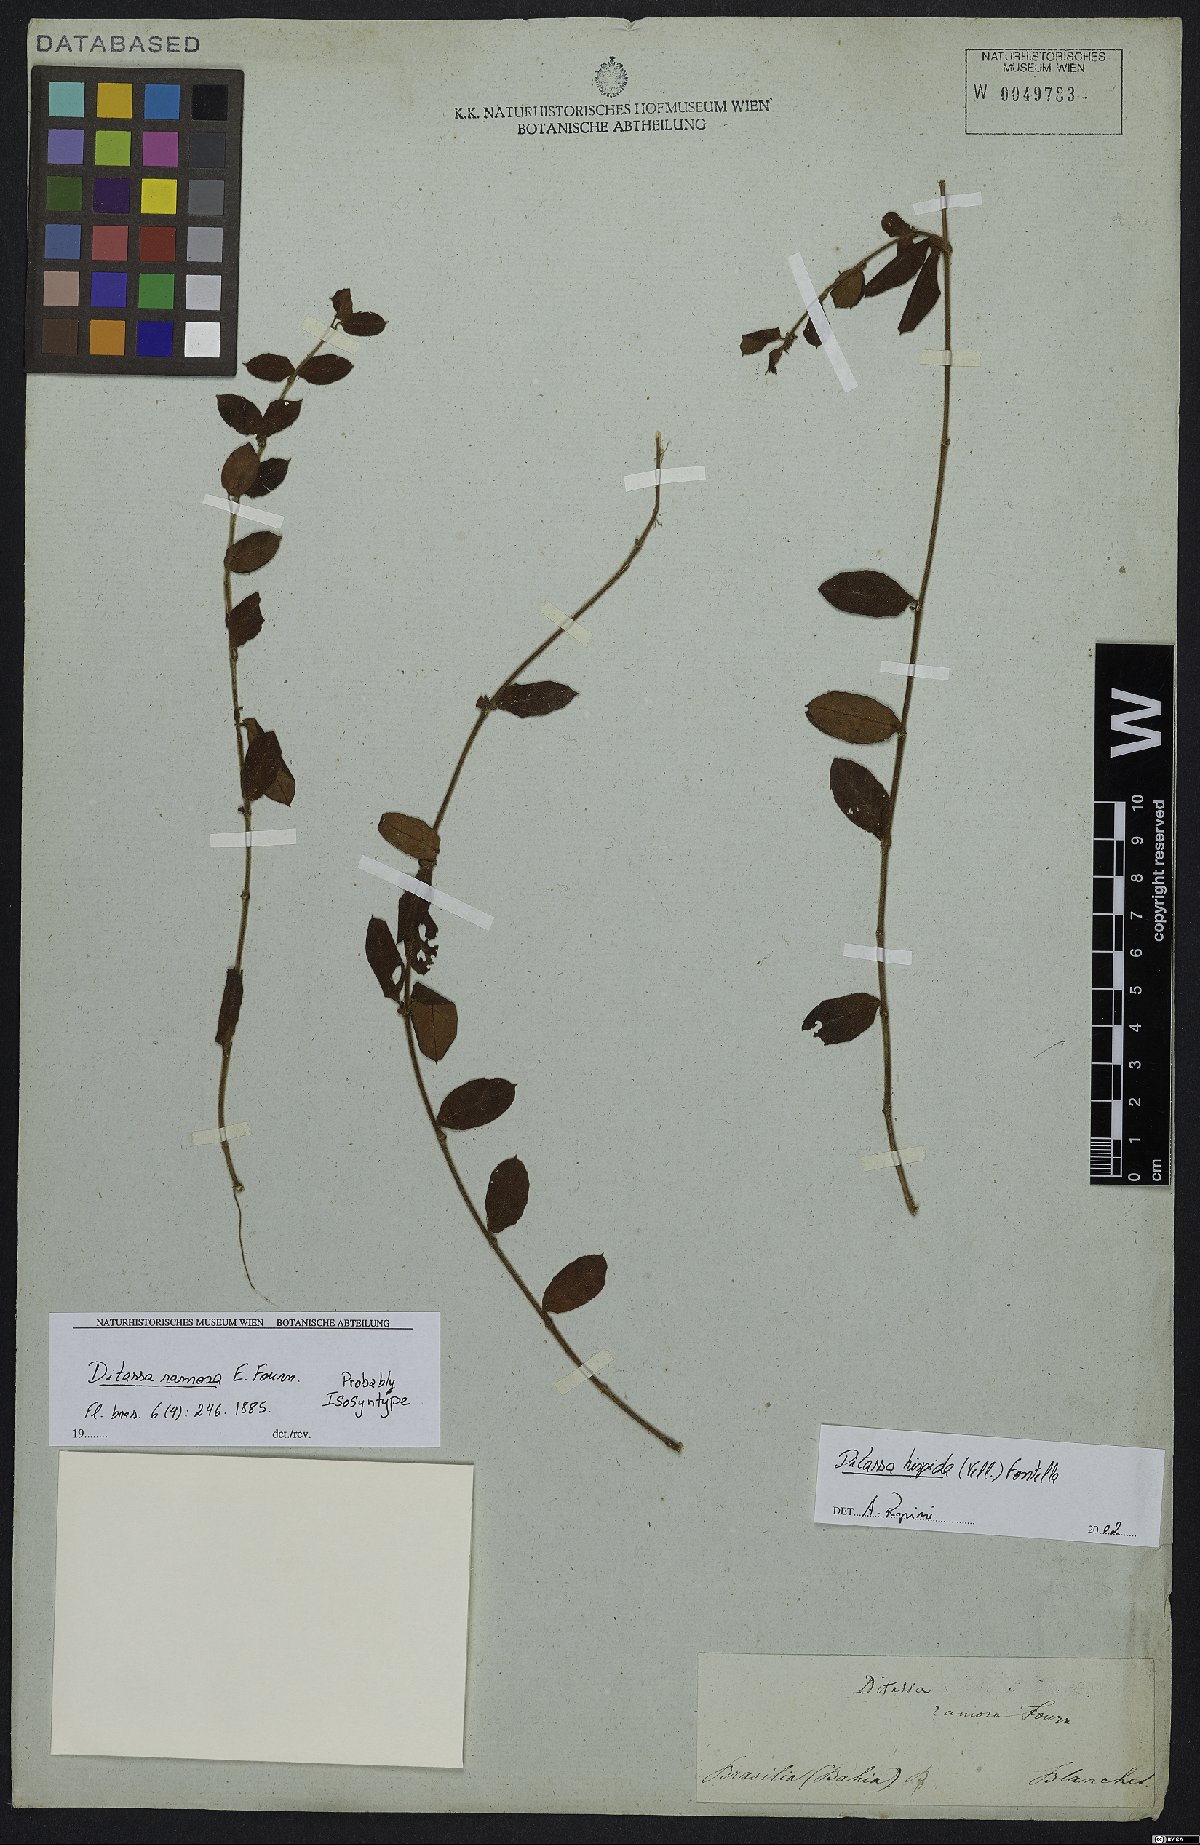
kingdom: Plantae
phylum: Tracheophyta
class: Magnoliopsida
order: Gentianales
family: Apocynaceae
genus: Ditassa
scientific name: Ditassa hispida
